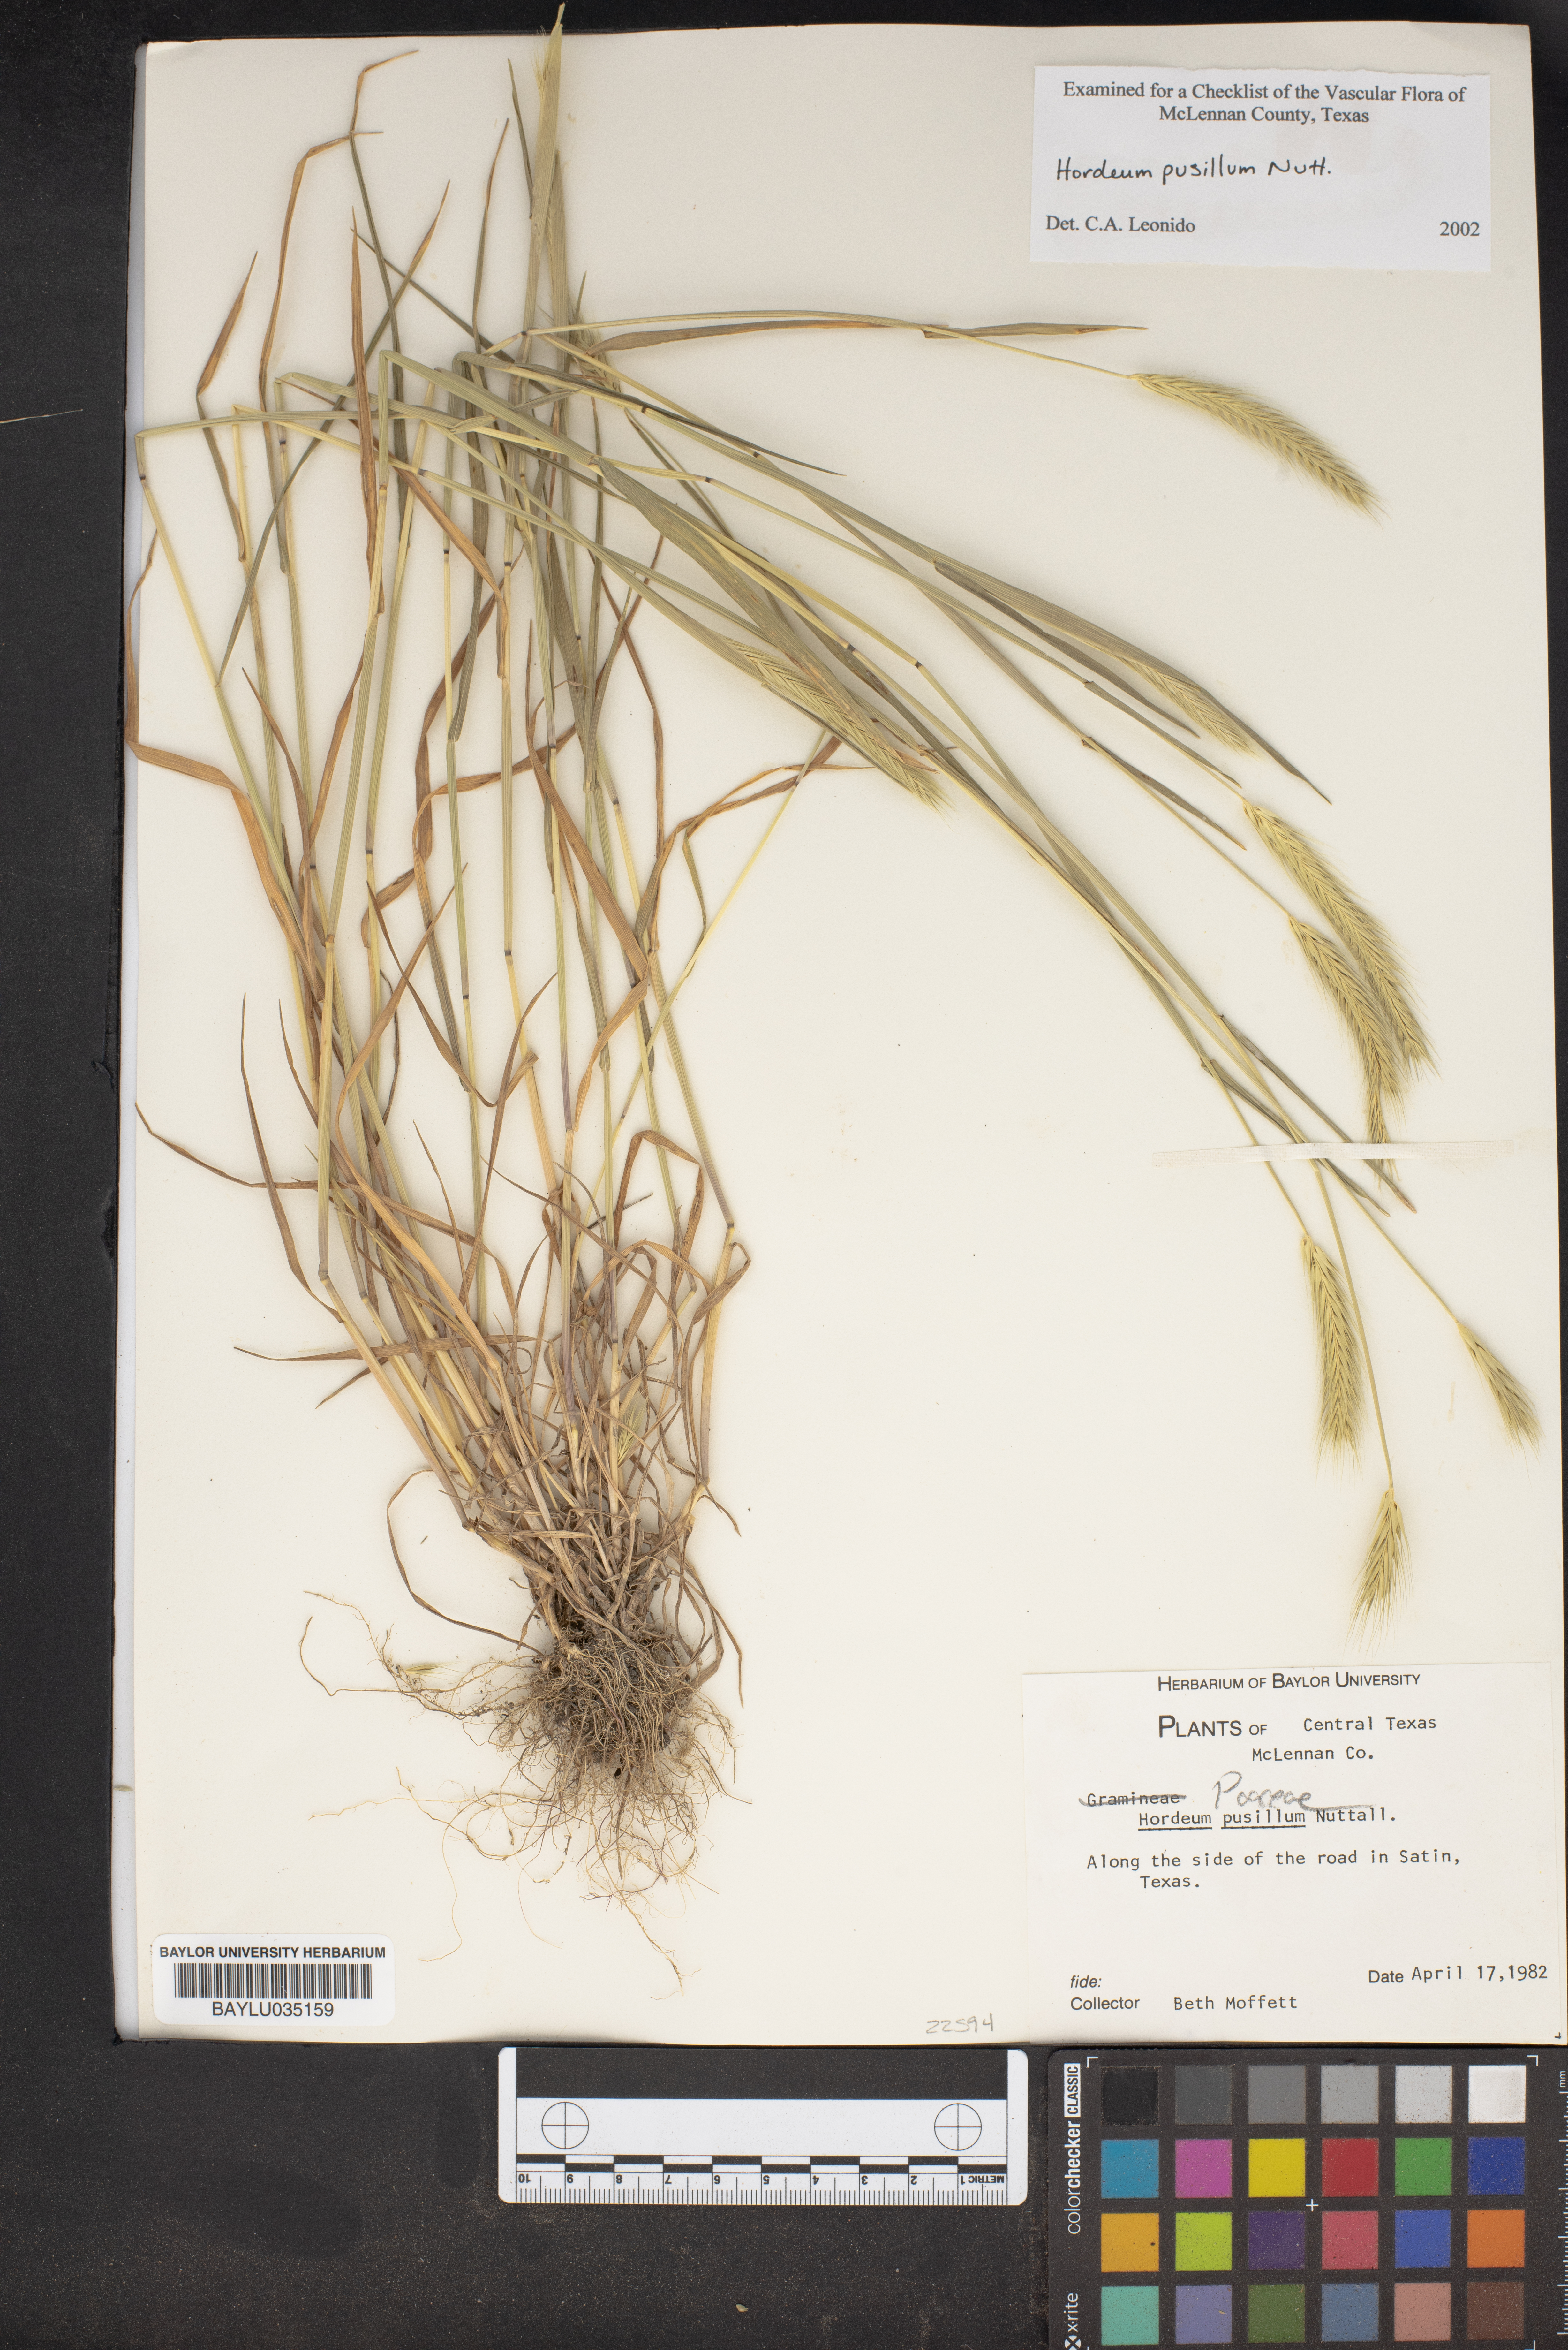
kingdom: Plantae
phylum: Tracheophyta
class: Liliopsida
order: Poales
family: Poaceae
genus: Hordeum
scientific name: Hordeum pusillum
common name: Little barley
